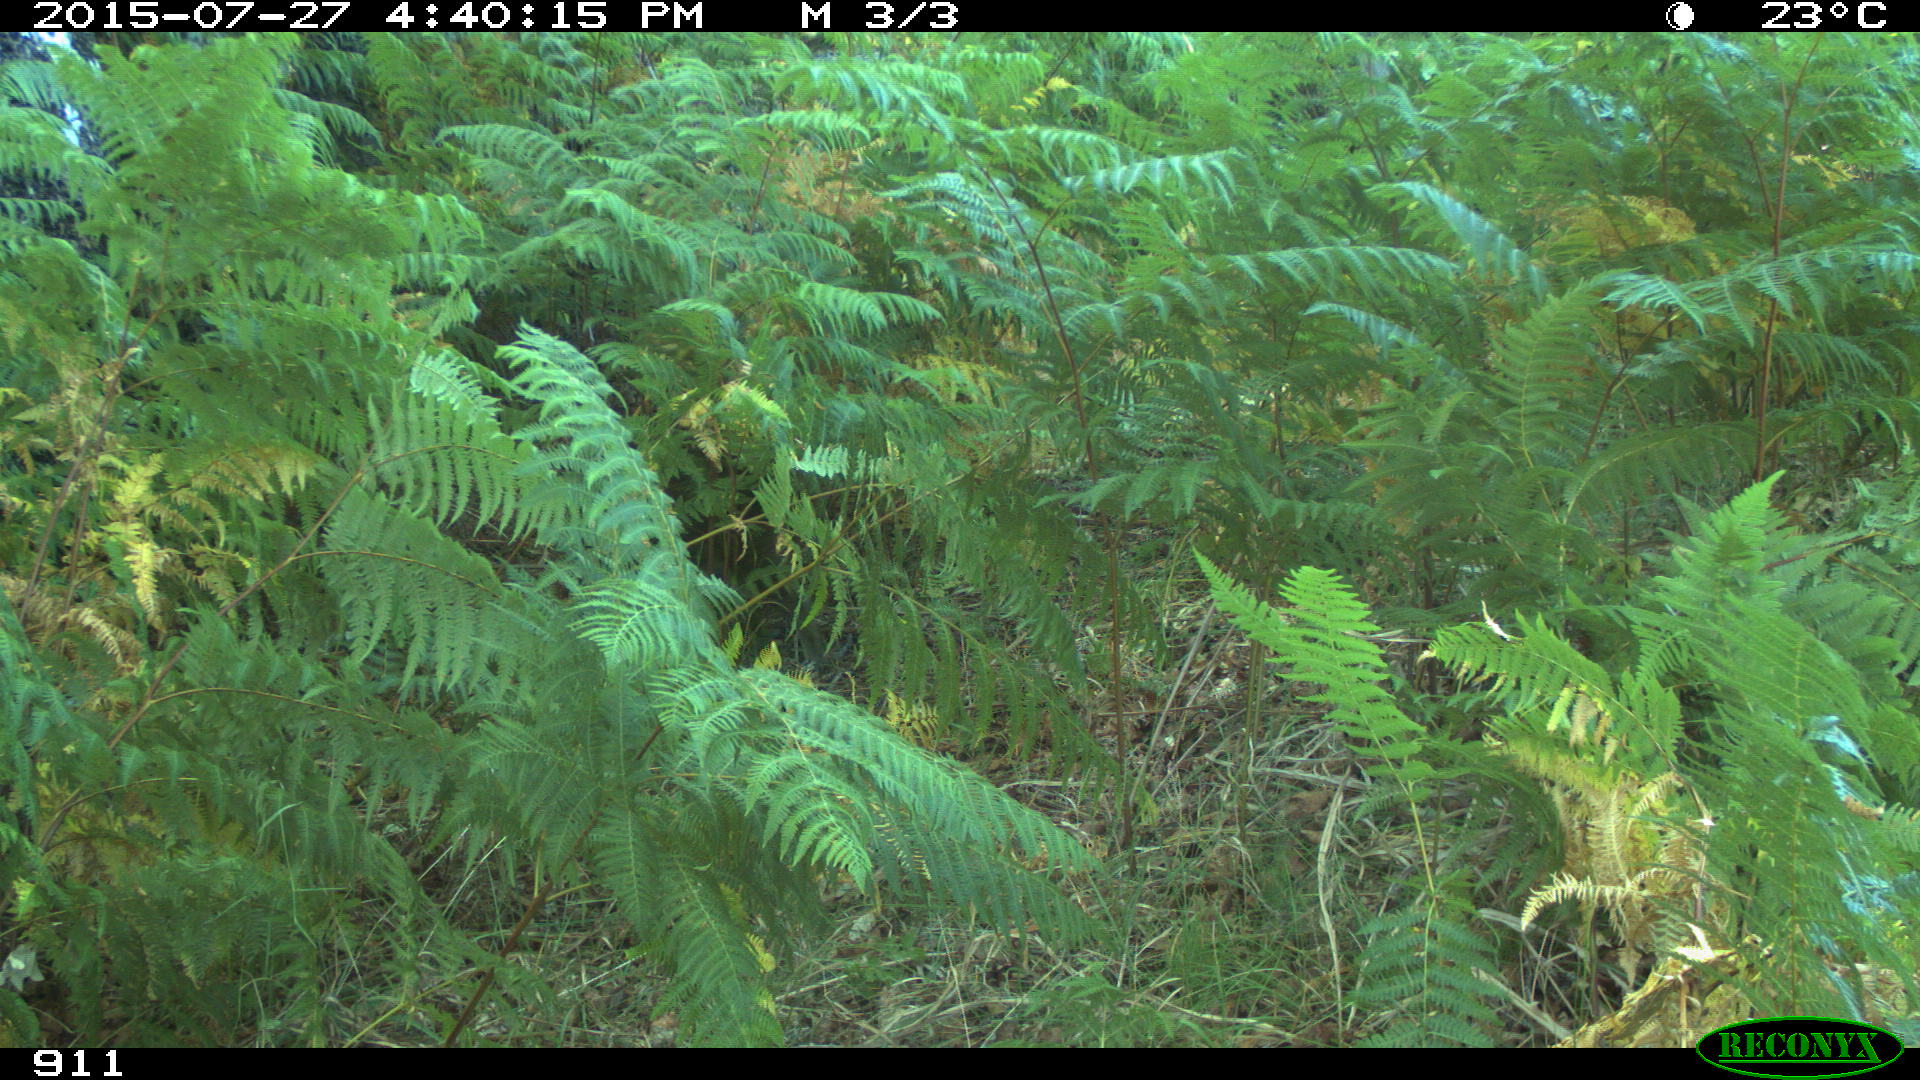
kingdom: Animalia
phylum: Chordata
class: Mammalia
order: Artiodactyla
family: Suidae
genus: Sus
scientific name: Sus scrofa
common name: Wild boar
